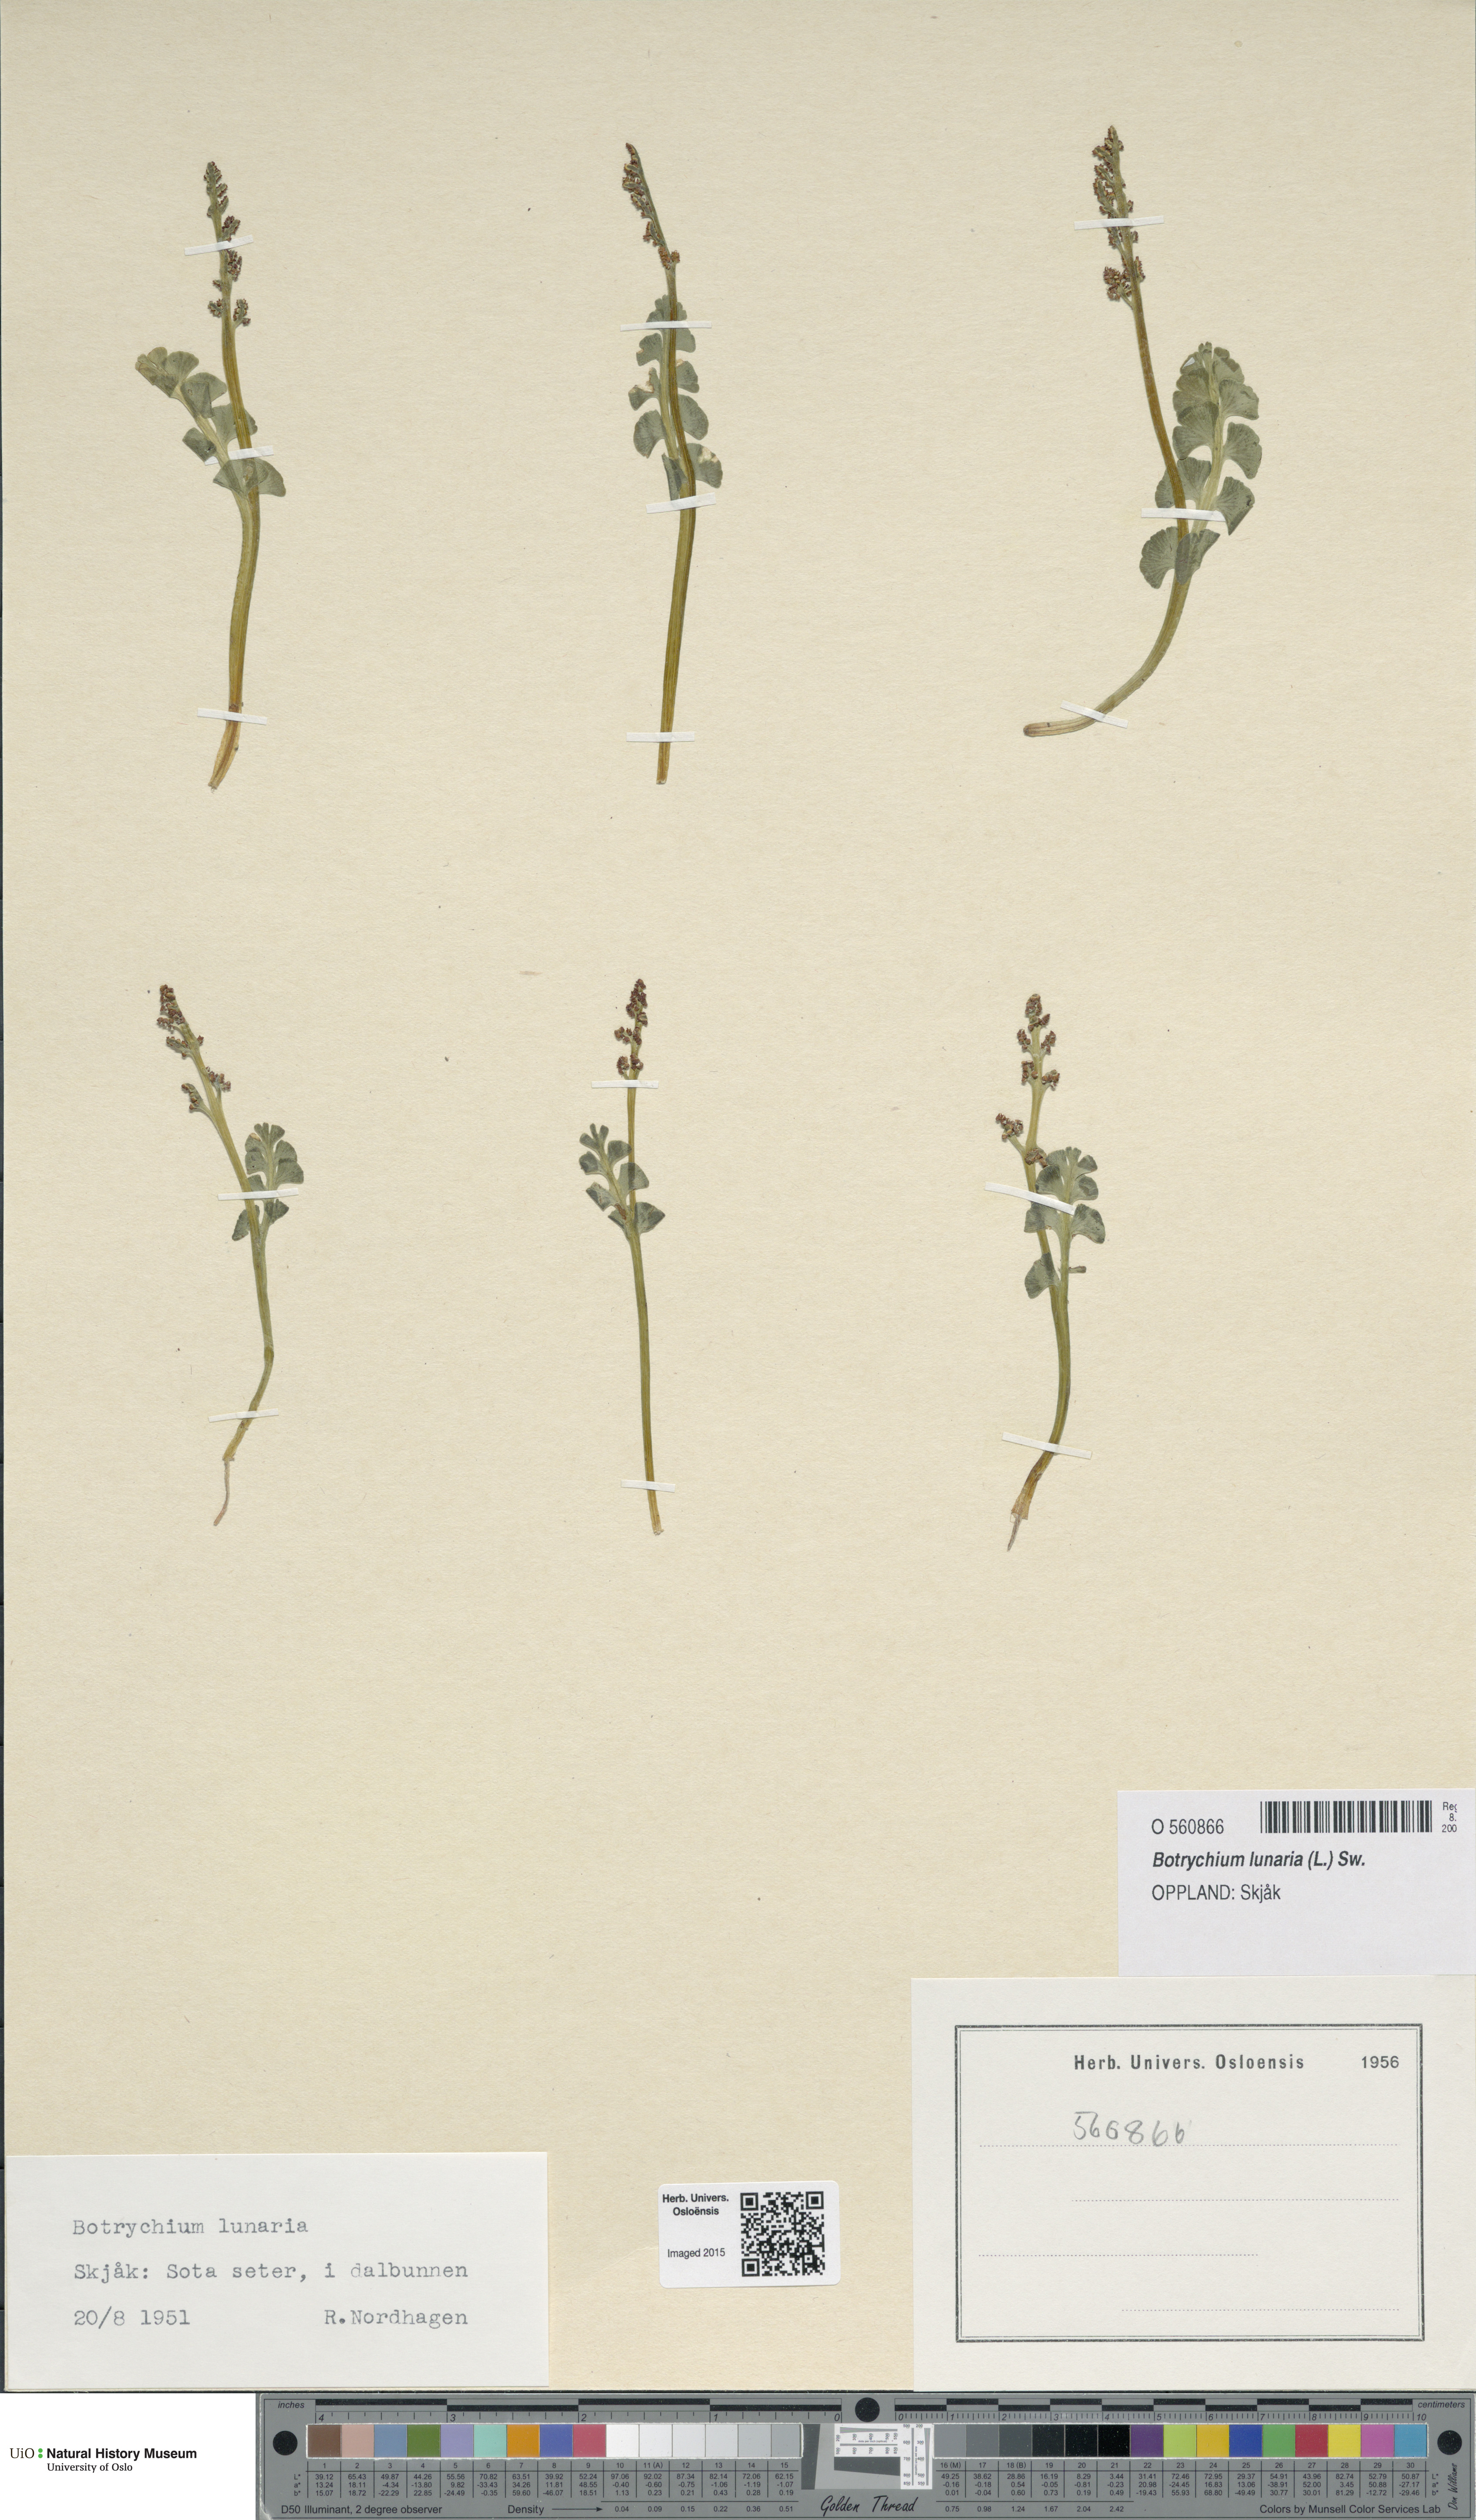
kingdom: Plantae
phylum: Tracheophyta
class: Polypodiopsida
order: Ophioglossales
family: Ophioglossaceae
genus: Botrychium
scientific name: Botrychium lunaria
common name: Moonwort
